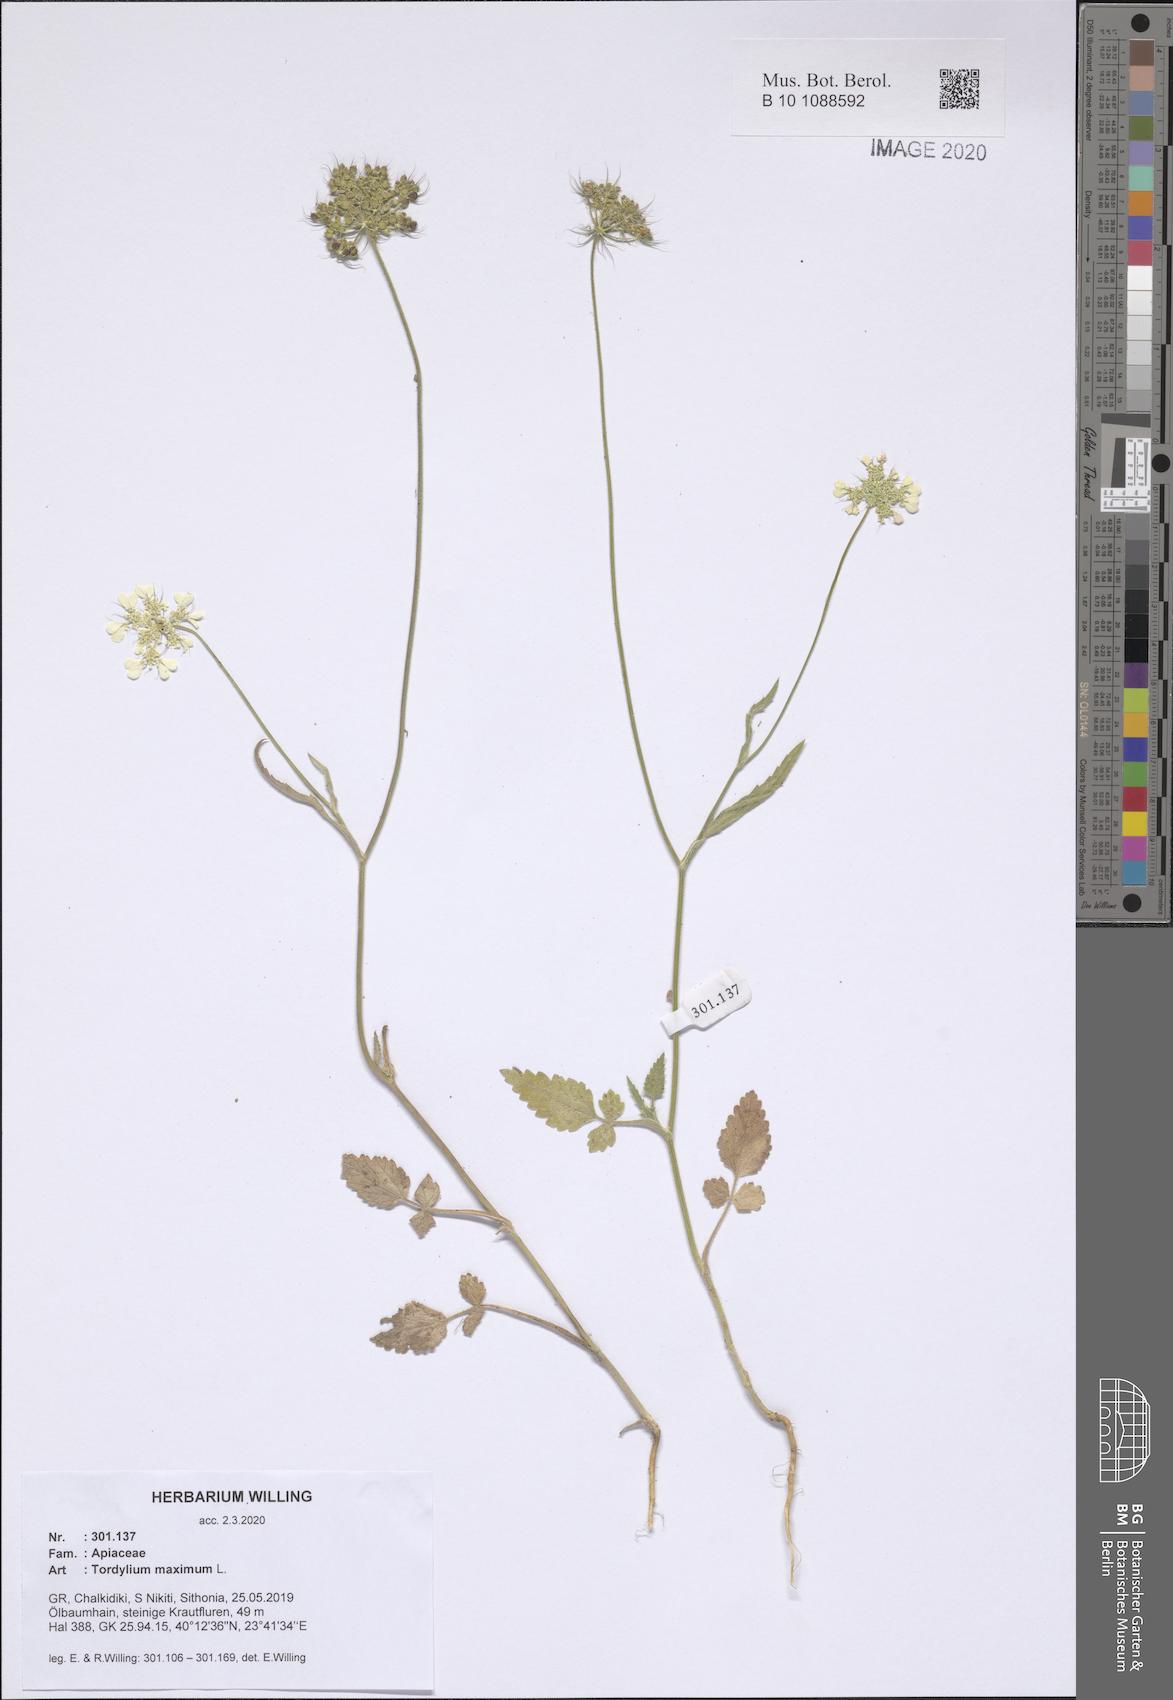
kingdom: Plantae
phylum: Tracheophyta
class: Magnoliopsida
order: Apiales
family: Apiaceae
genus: Tordylium
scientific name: Tordylium maximum
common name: Hartwort
